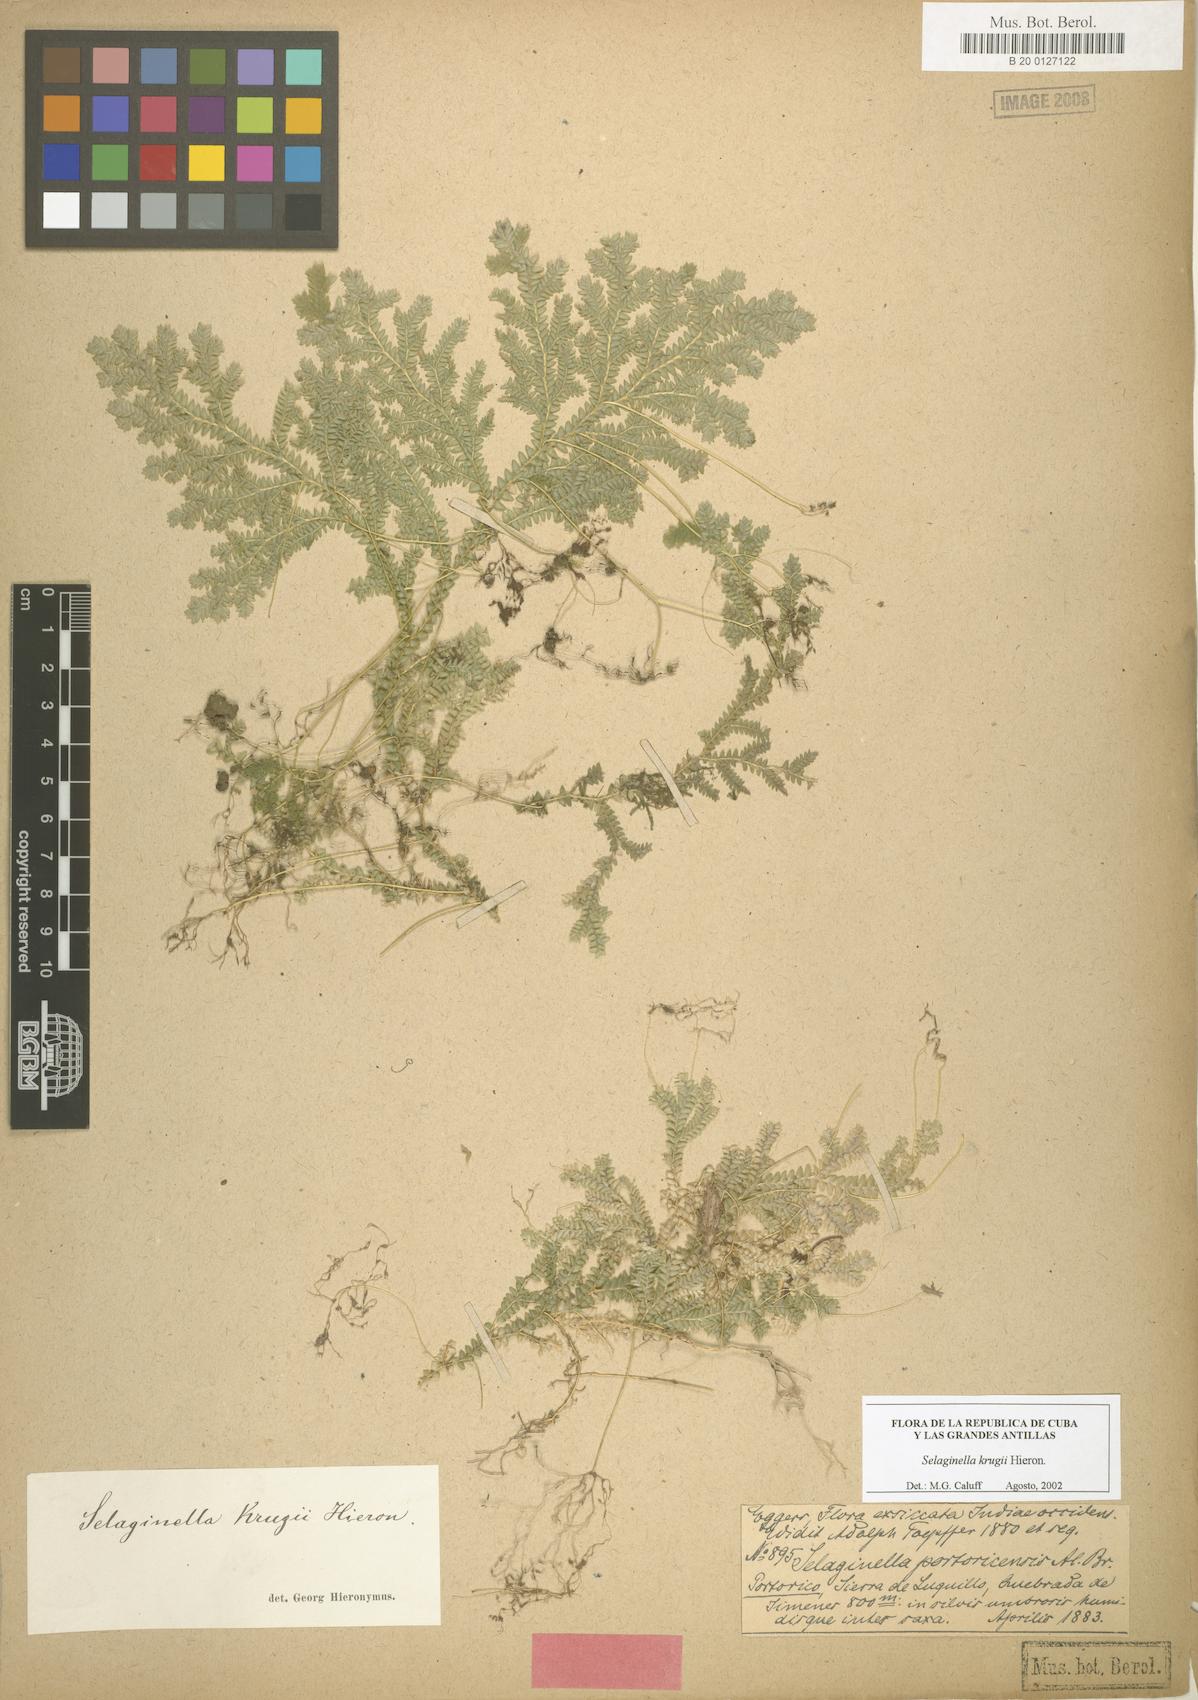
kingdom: Plantae
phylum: Tracheophyta
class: Lycopodiopsida
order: Selaginellales
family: Selaginellaceae
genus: Selaginella
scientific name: Selaginella krugii
